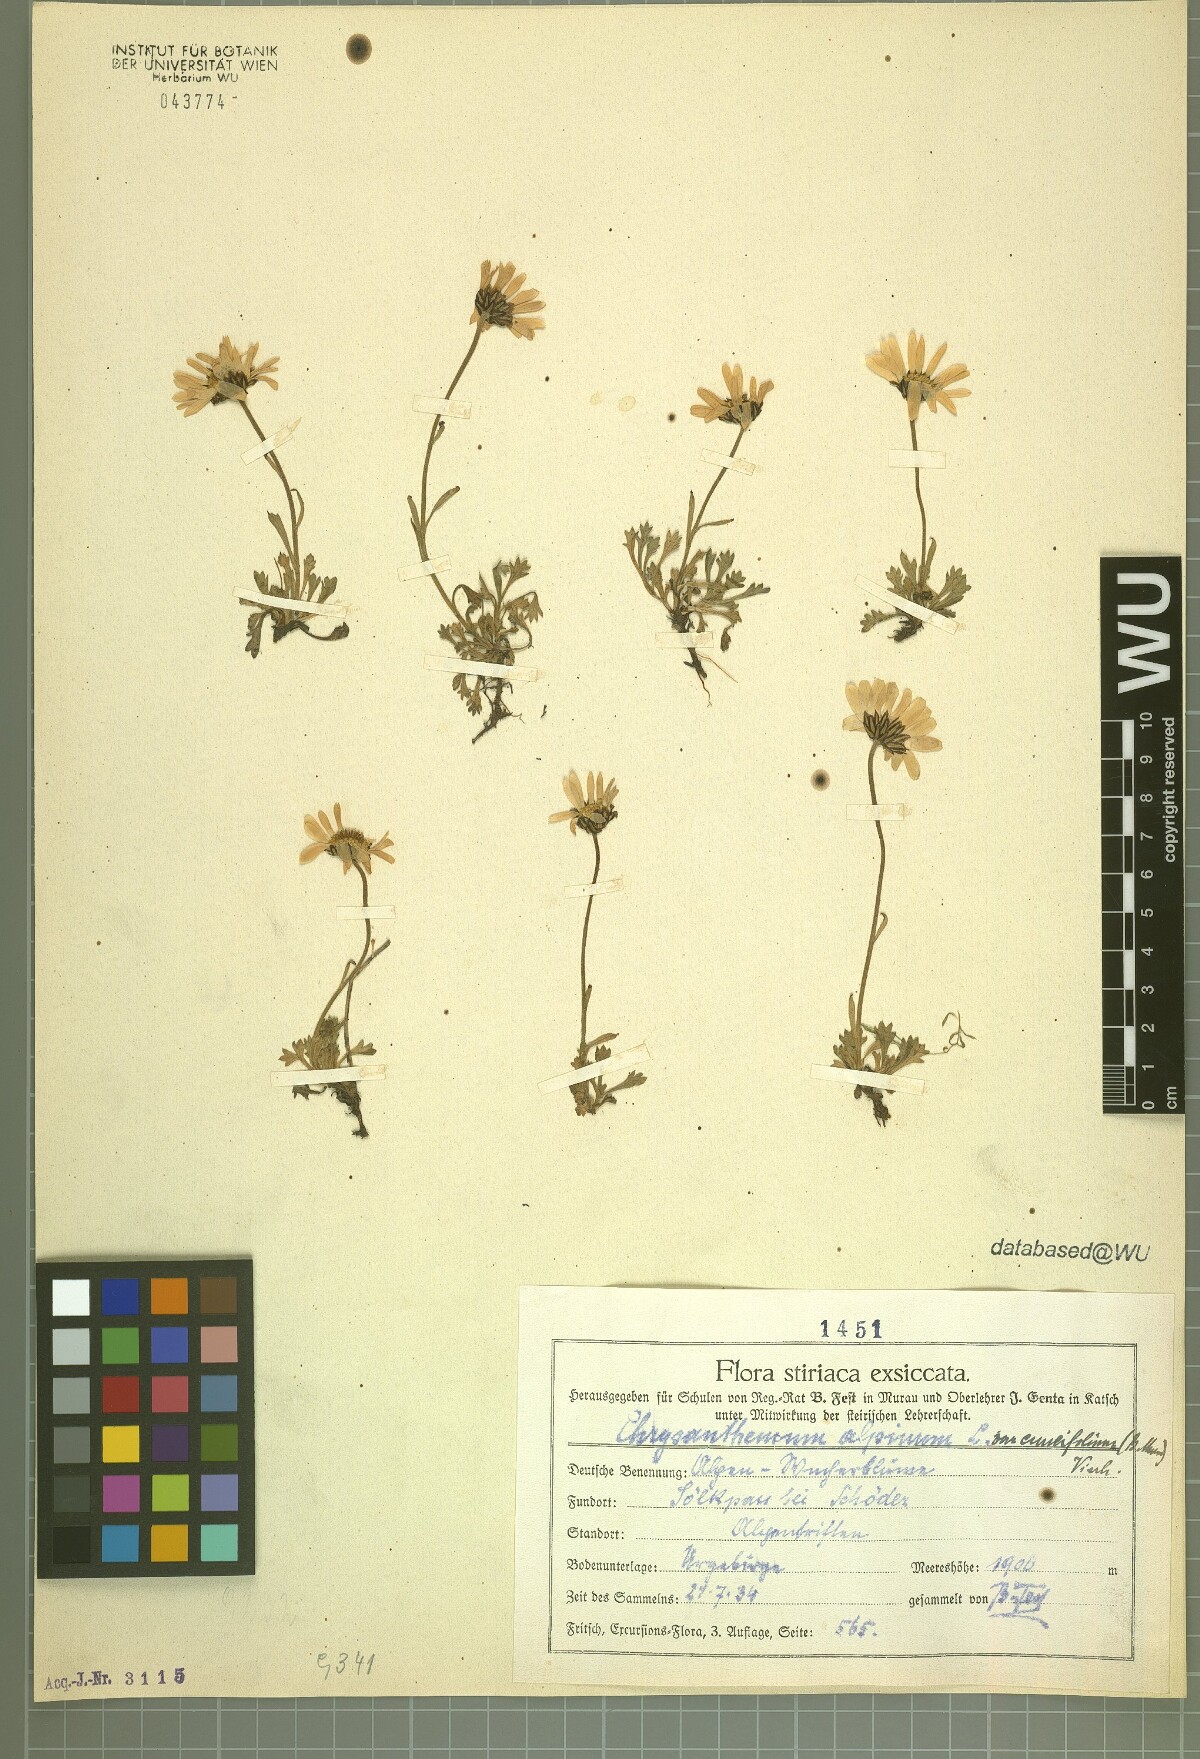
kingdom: Plantae
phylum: Tracheophyta
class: Magnoliopsida
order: Asterales
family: Asteraceae
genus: Leucanthemopsis
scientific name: Leucanthemopsis alpina
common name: Alpine moon daisy
